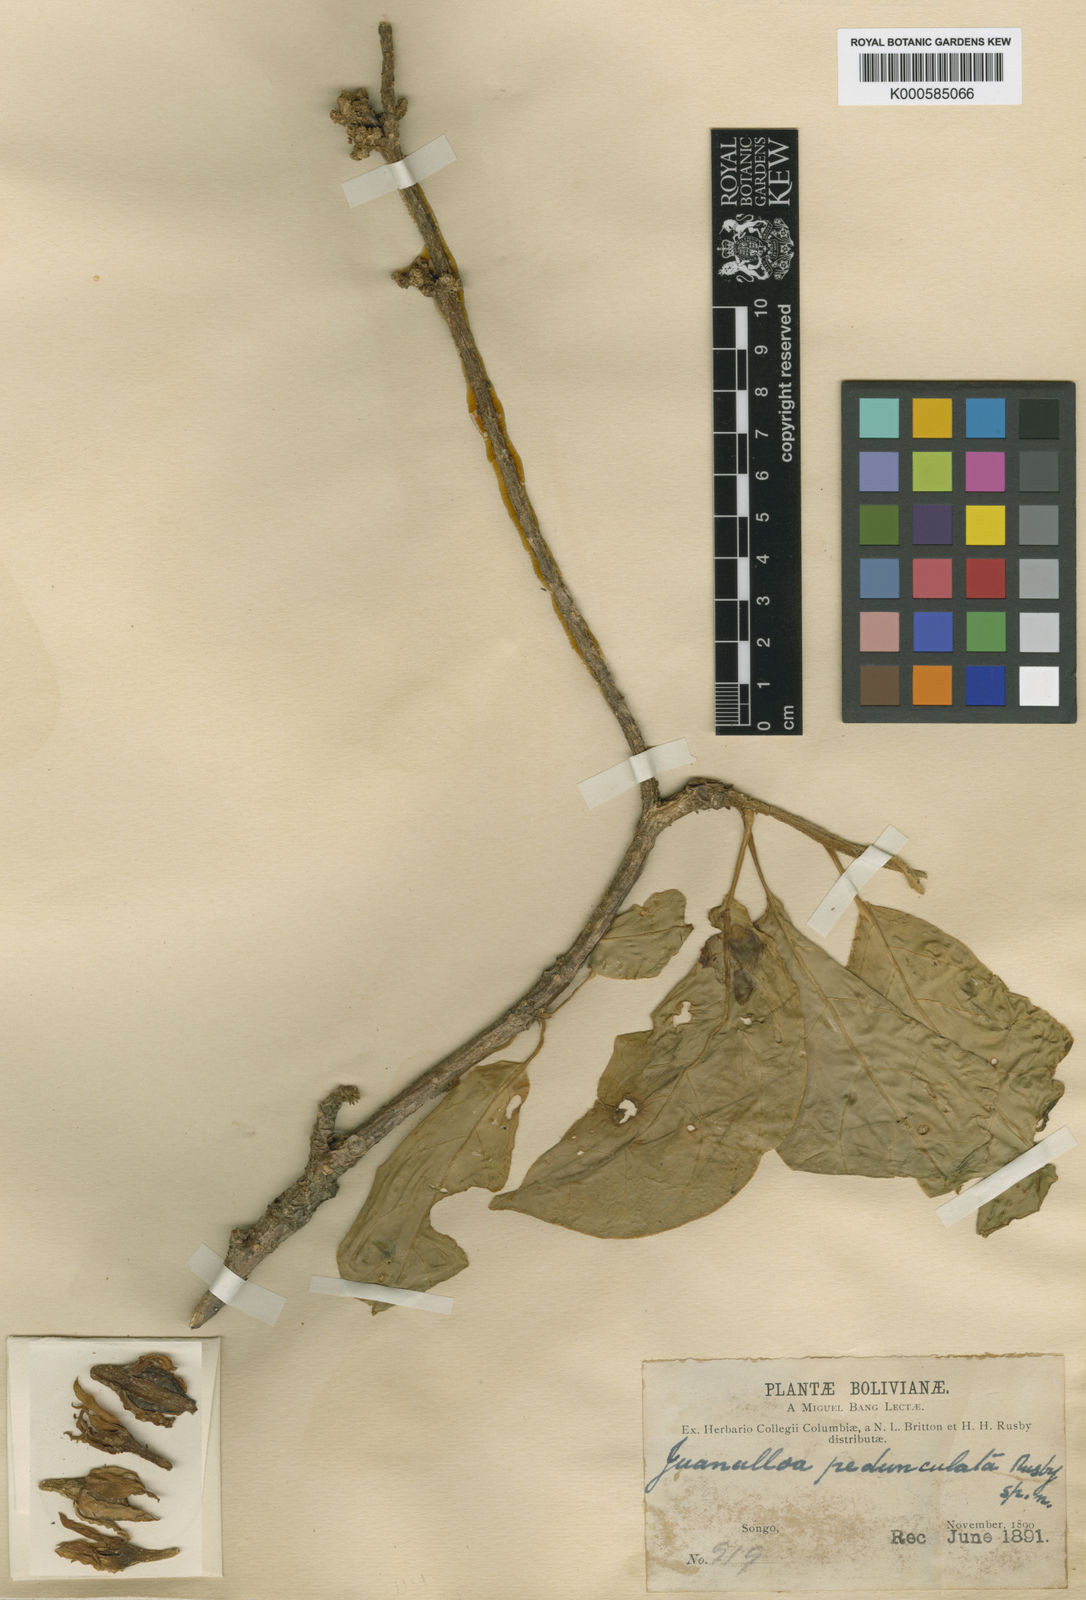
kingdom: Plantae
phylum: Tracheophyta
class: Magnoliopsida
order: Solanales
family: Solanaceae
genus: Juanulloa
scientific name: Juanulloa parasitica
